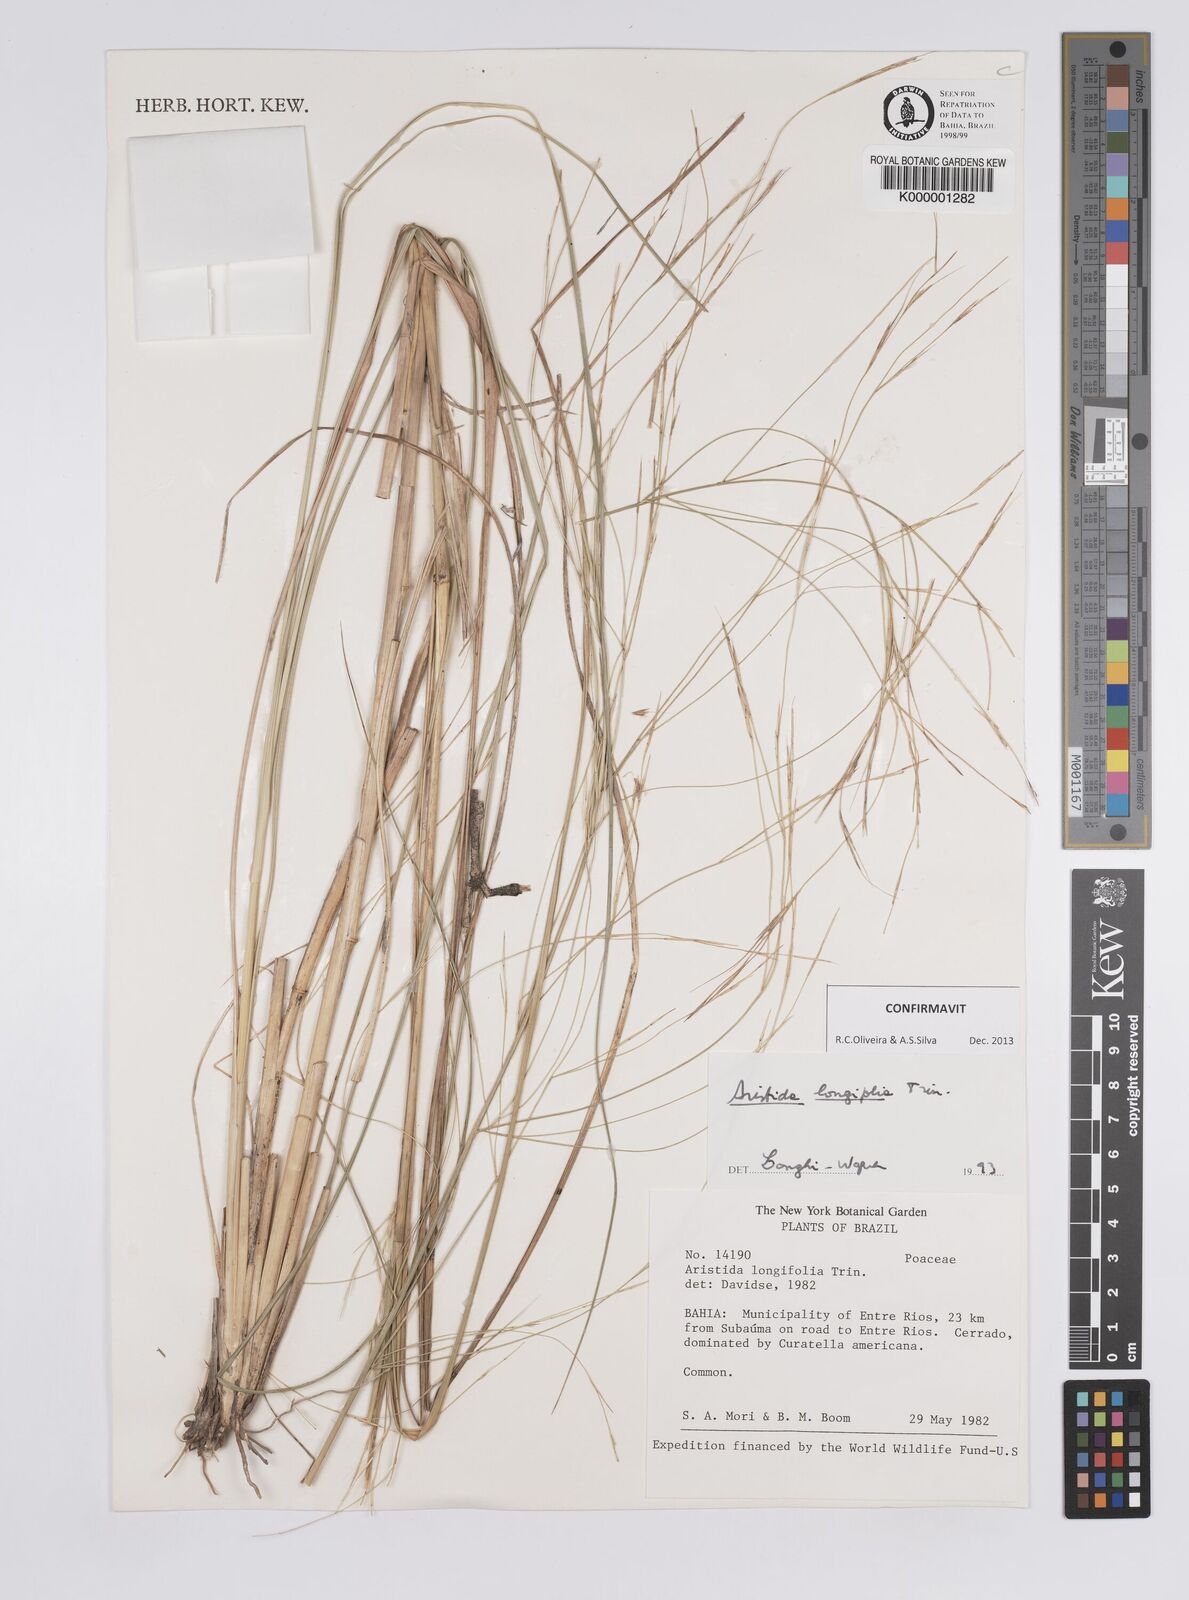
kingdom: Plantae
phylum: Tracheophyta
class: Liliopsida
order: Poales
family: Poaceae
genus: Aristida
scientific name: Aristida longifolia
